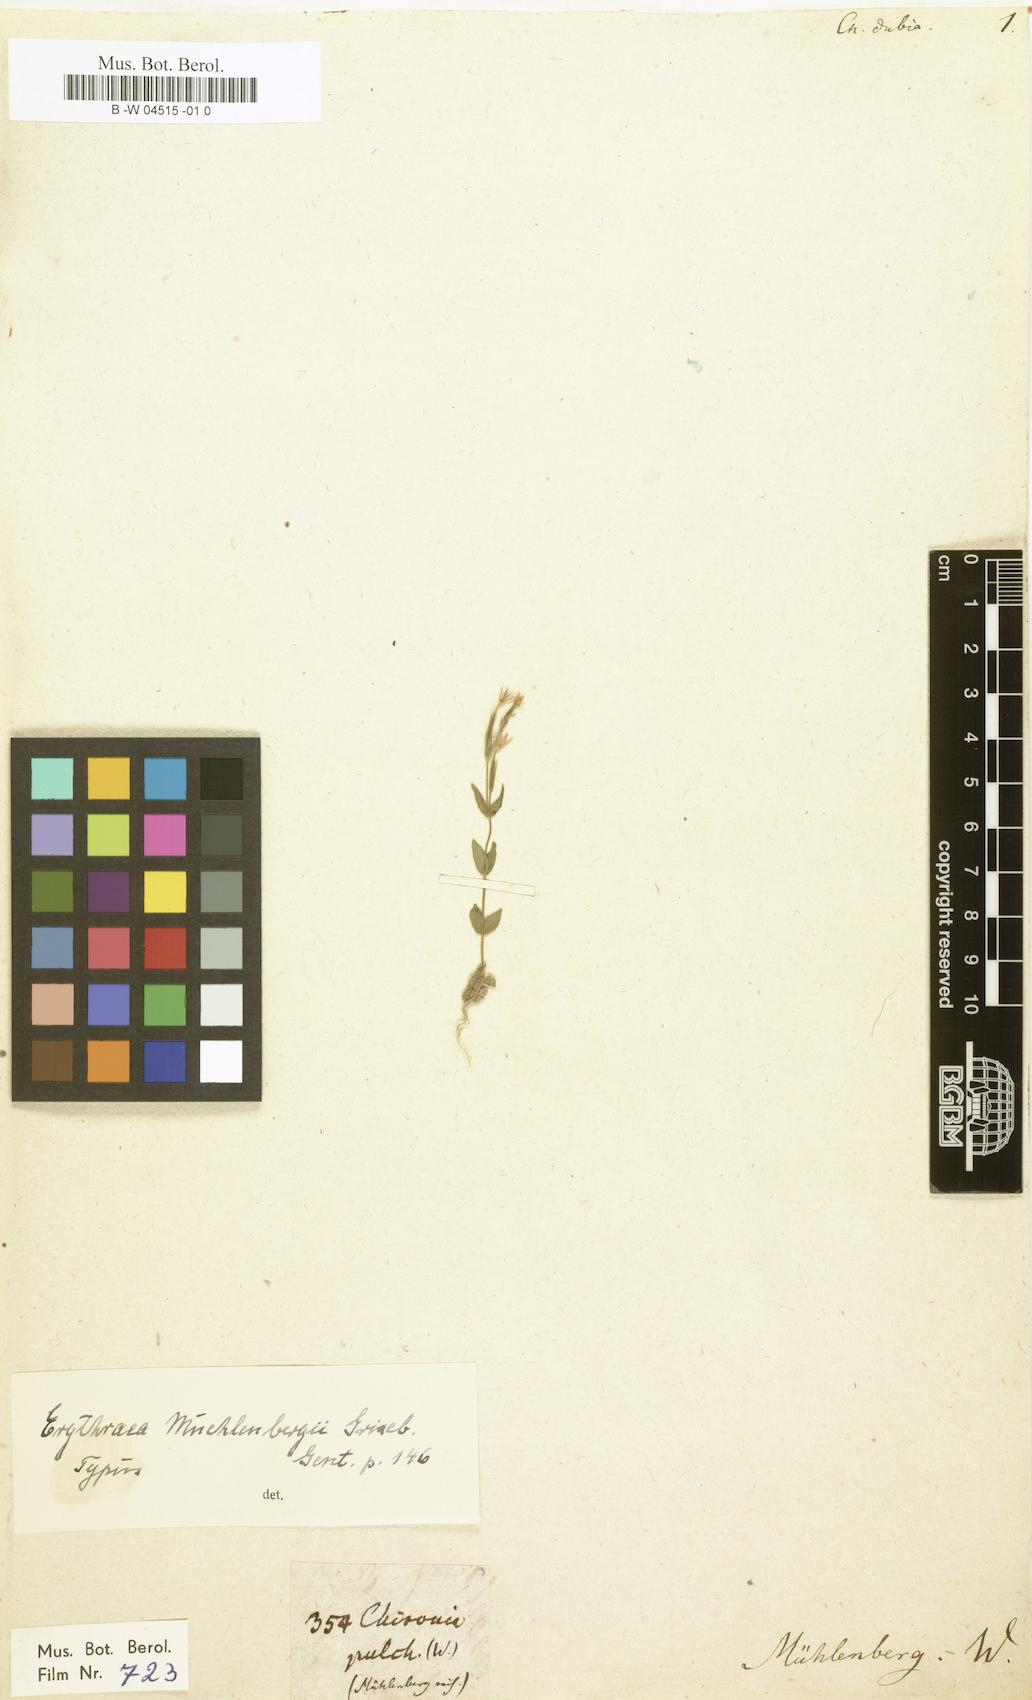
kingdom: Plantae
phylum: Tracheophyta
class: Magnoliopsida
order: Gentianales
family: Gentianaceae
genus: Zeltnera
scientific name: Zeltnera muhlenbergii
